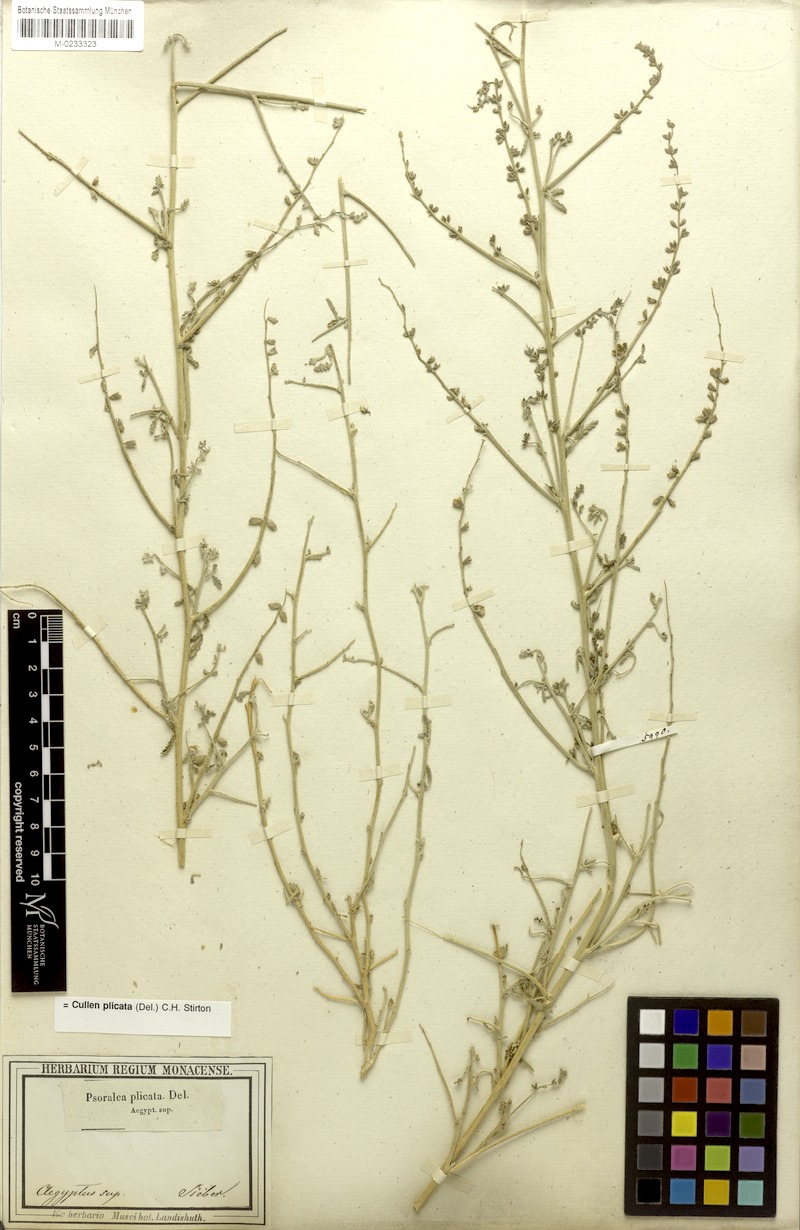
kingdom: Plantae
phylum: Tracheophyta
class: Magnoliopsida
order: Fabales
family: Fabaceae
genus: Cullen
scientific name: Cullen plicatum
